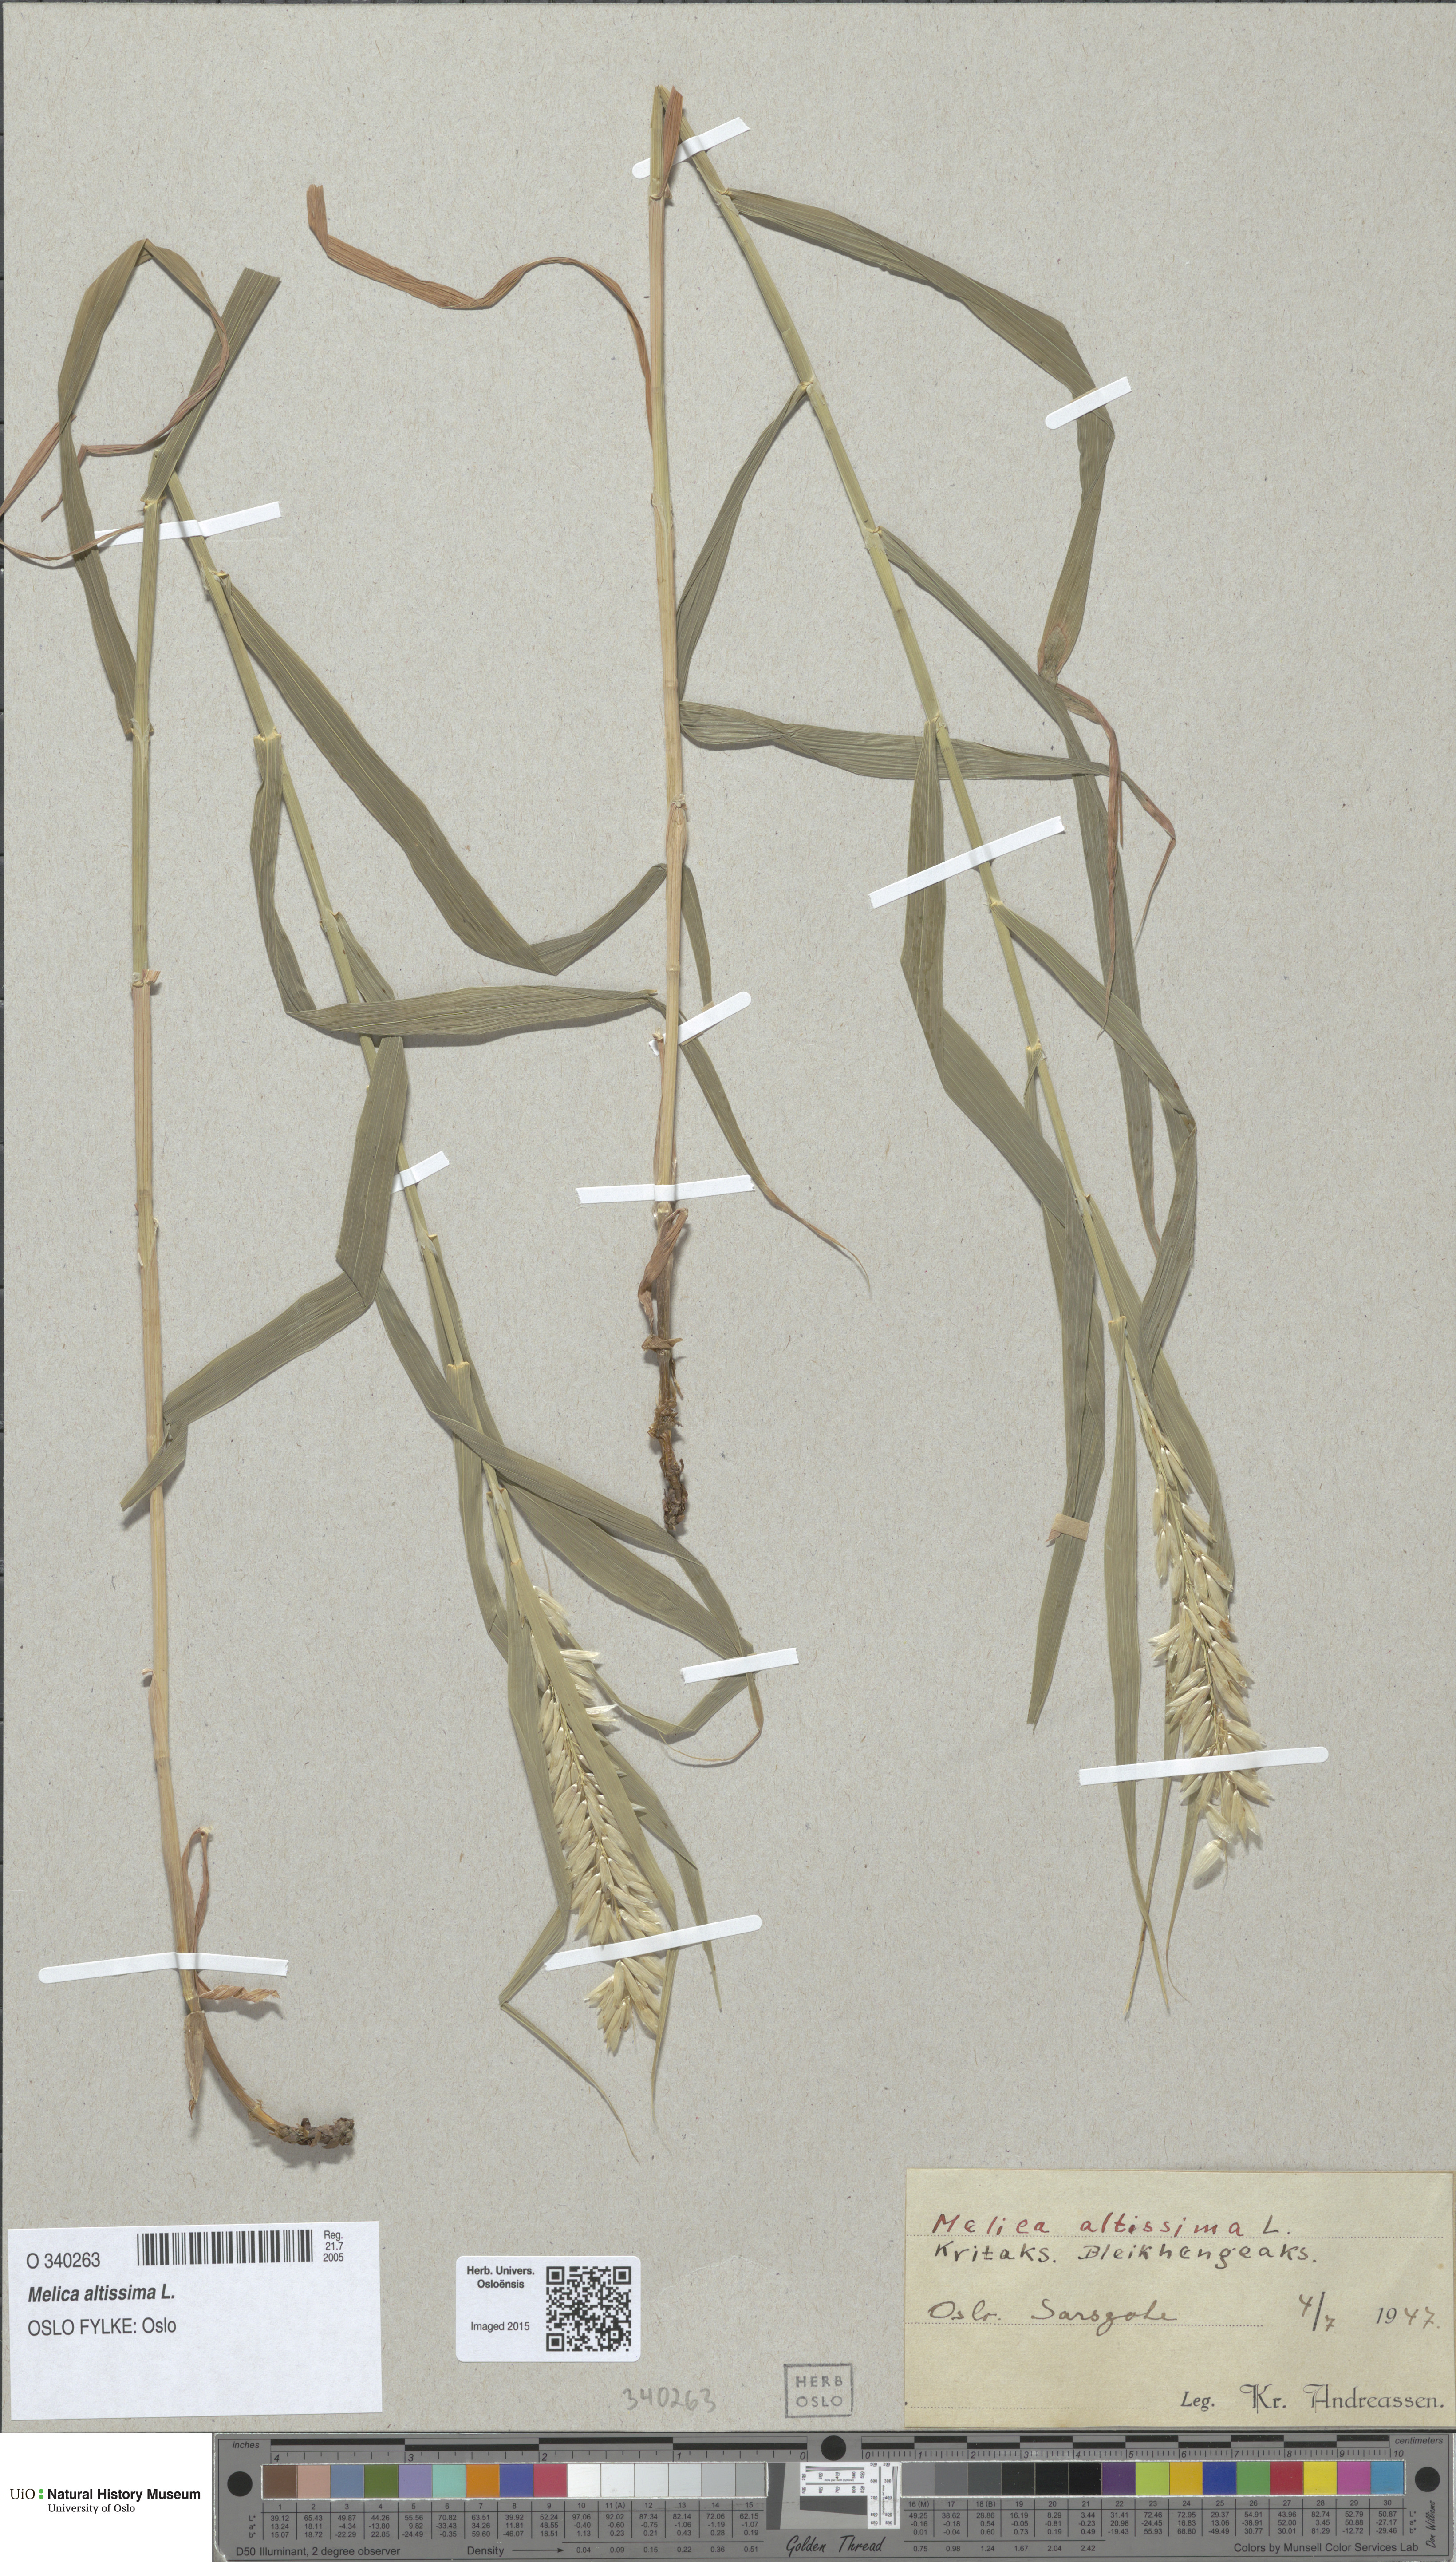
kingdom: Plantae
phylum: Tracheophyta
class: Liliopsida
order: Poales
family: Poaceae
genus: Melica
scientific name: Melica altissima
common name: Siberian melicgrass
